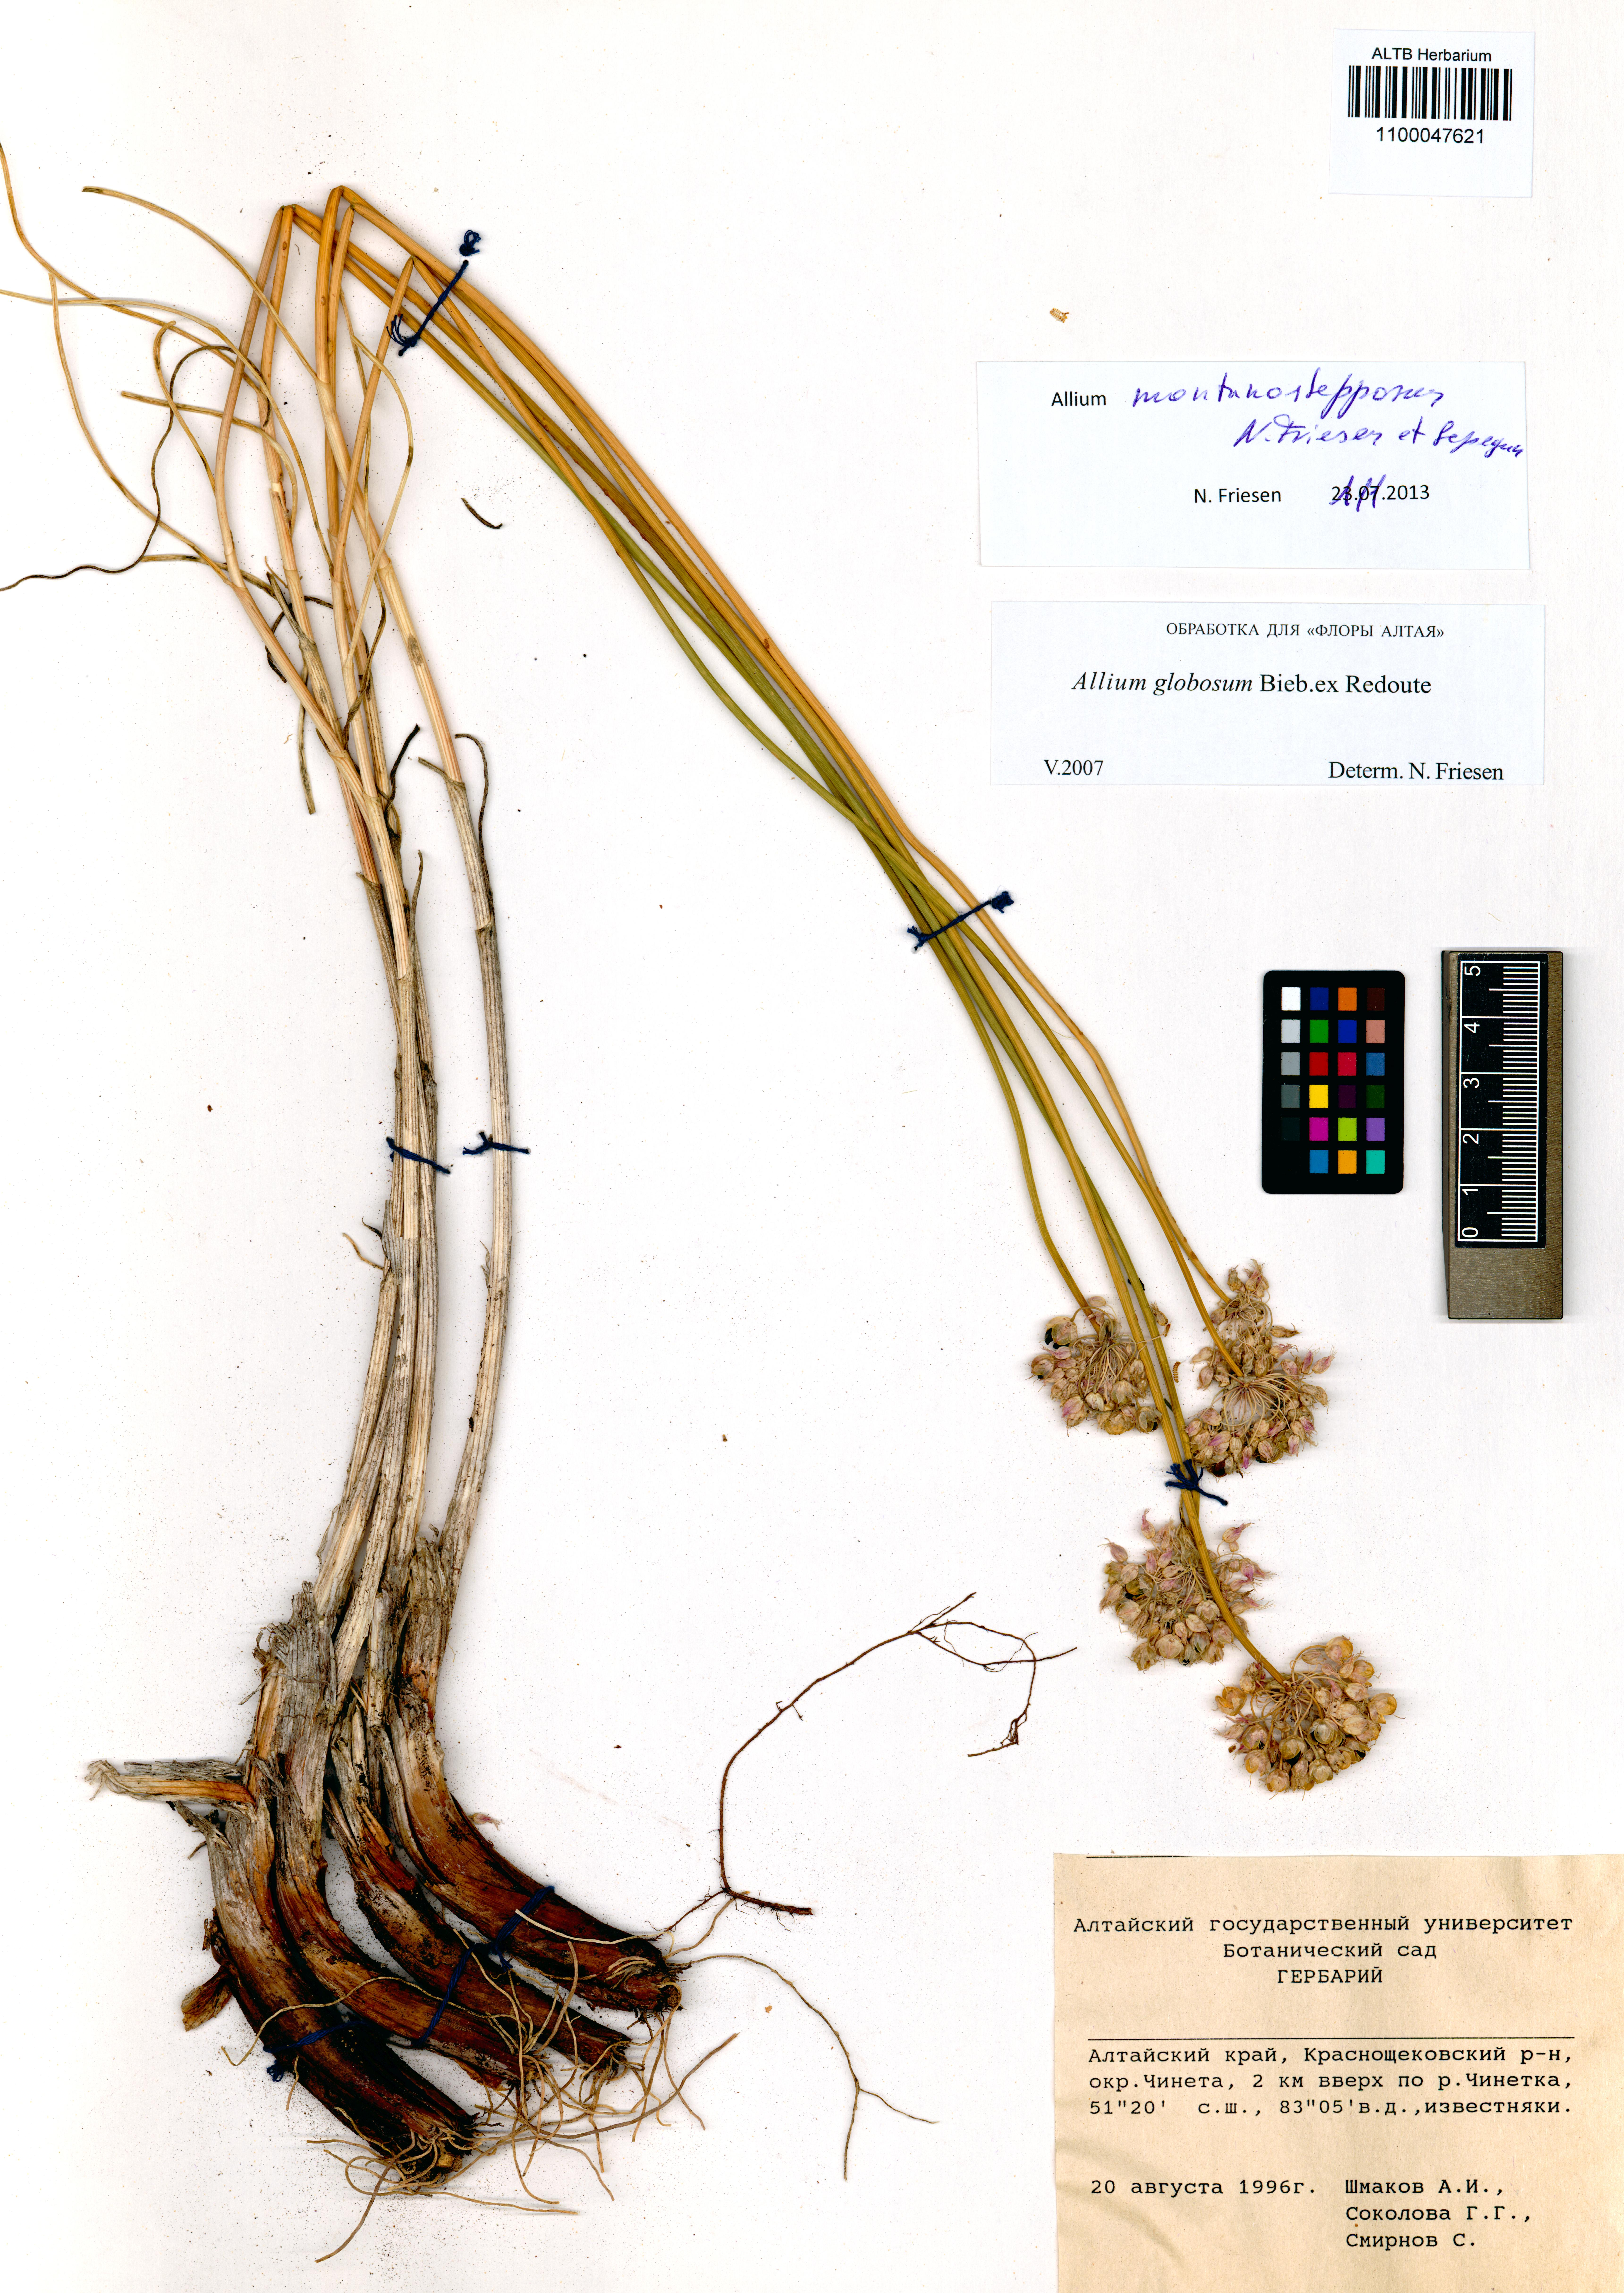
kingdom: Plantae
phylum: Tracheophyta
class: Liliopsida
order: Asparagales
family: Amaryllidaceae
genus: Allium
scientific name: Allium montanostepposum
